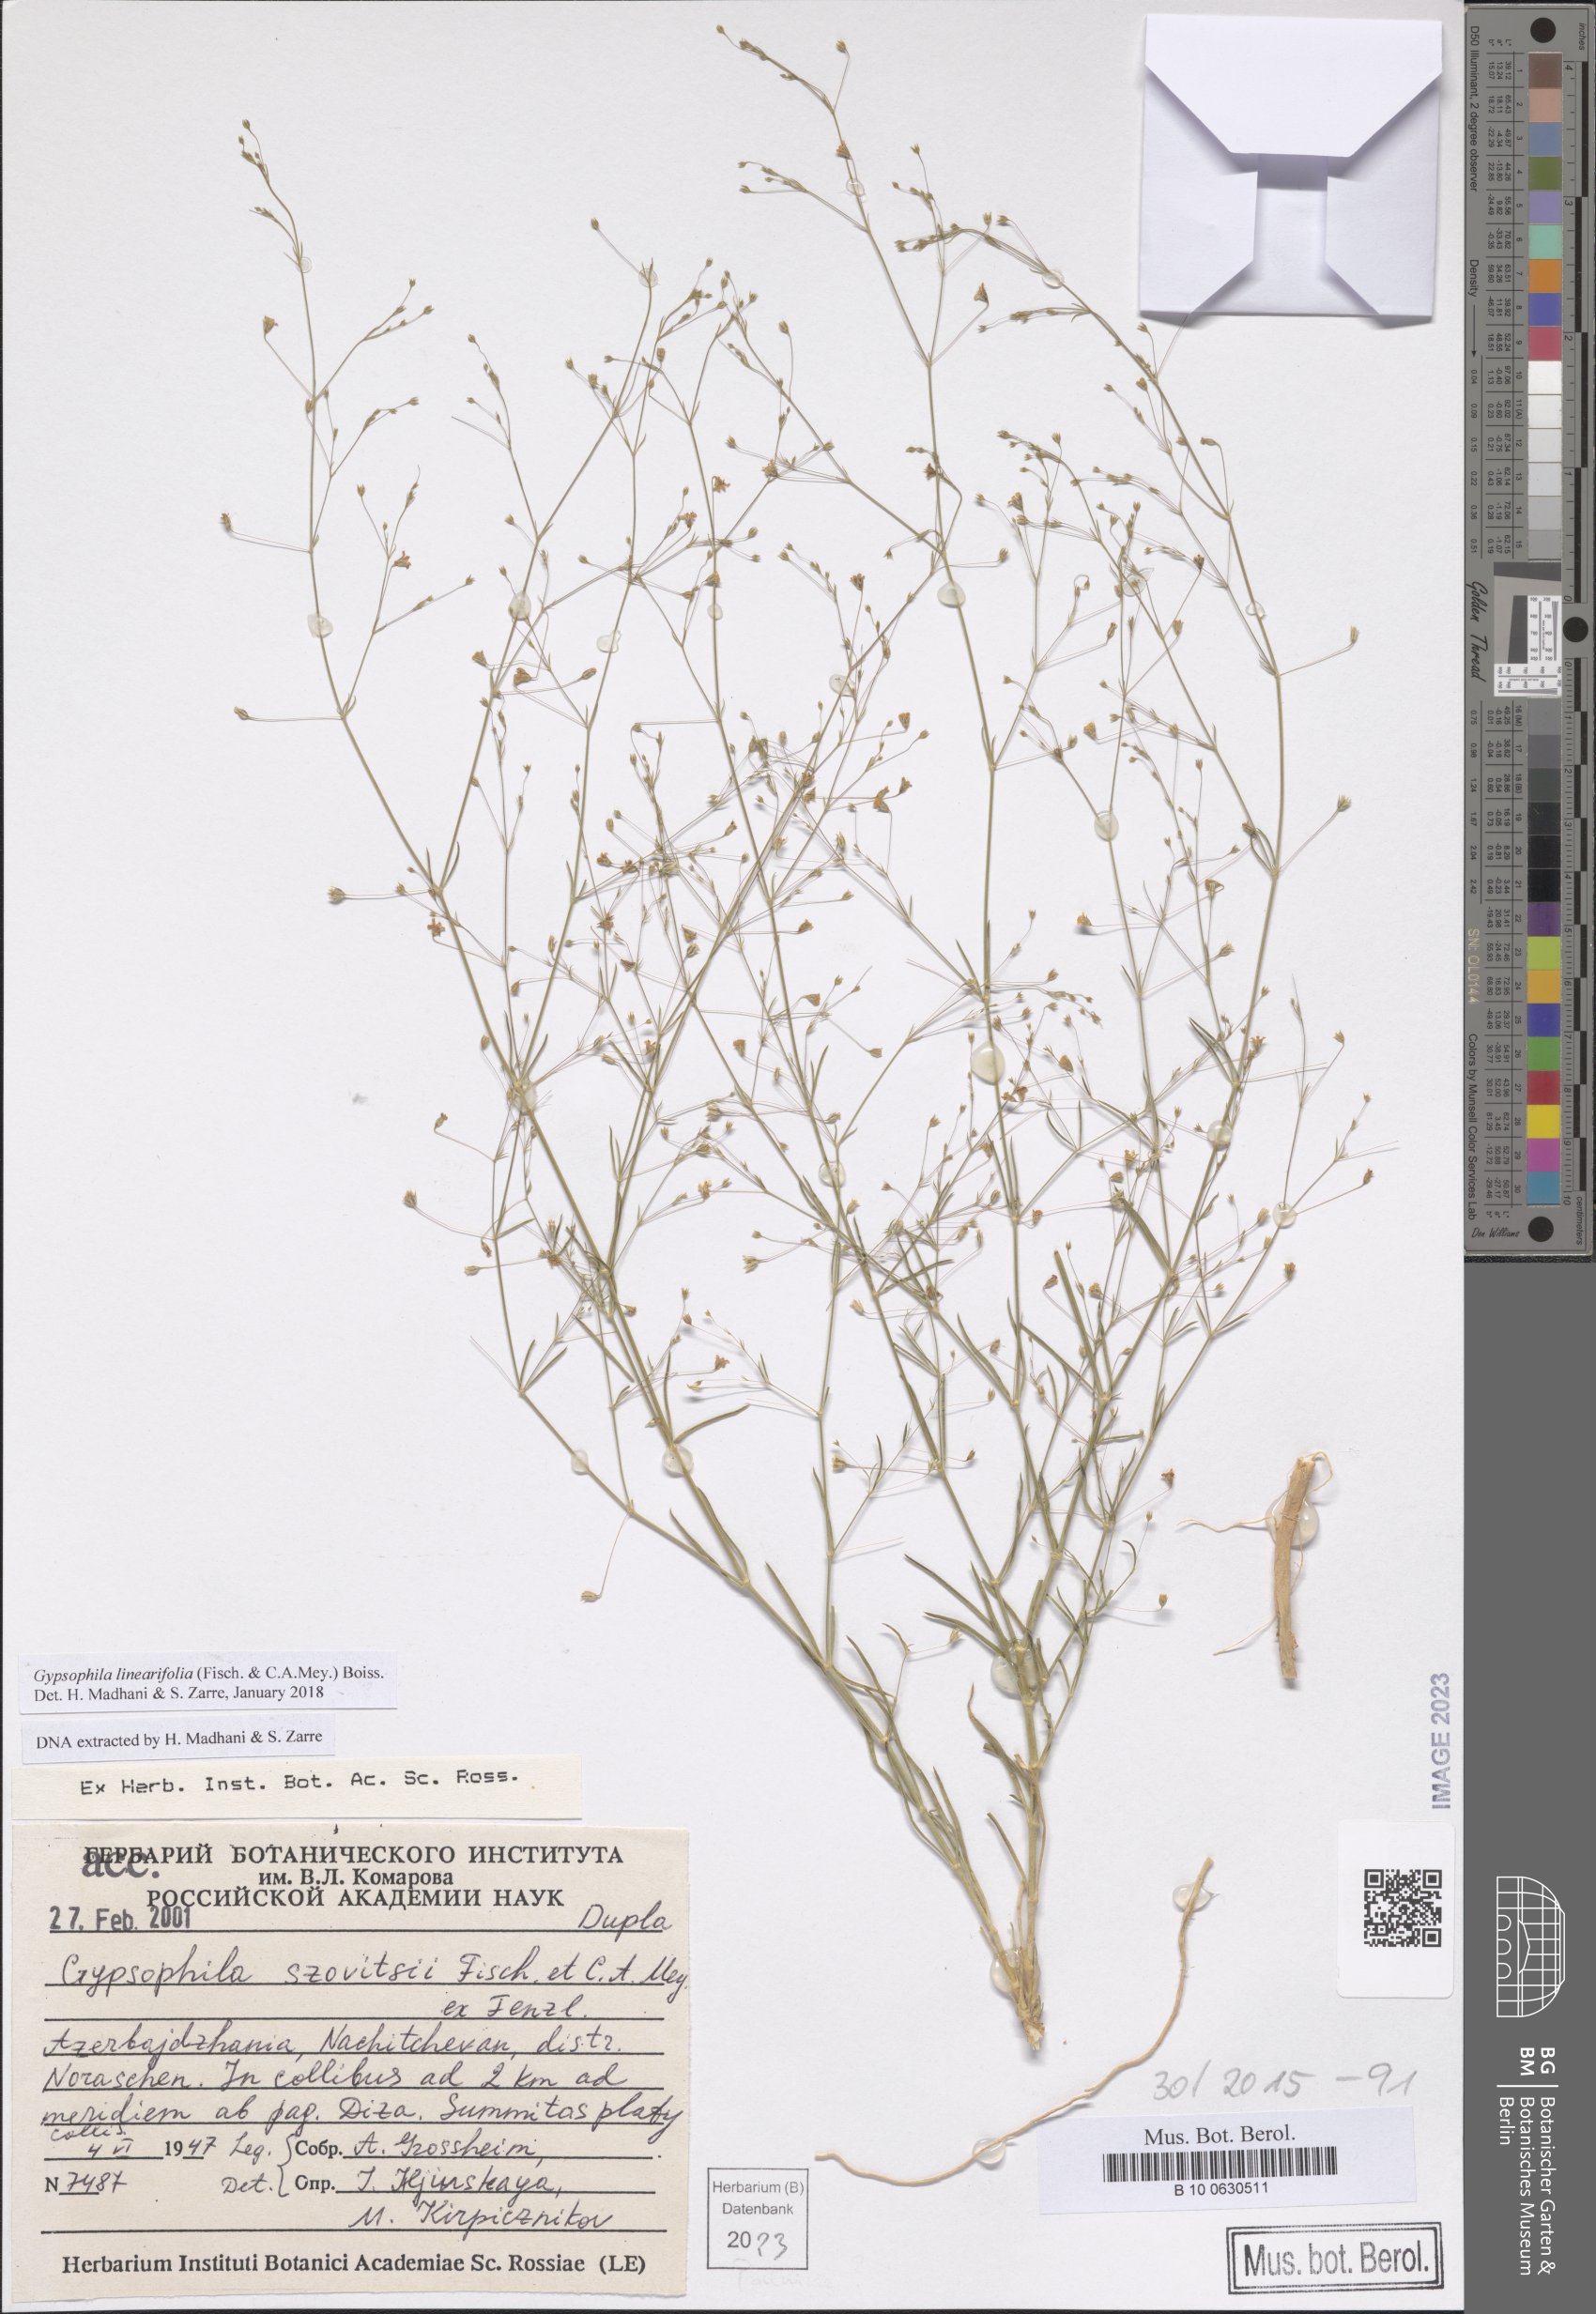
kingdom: Plantae
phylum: Tracheophyta
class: Magnoliopsida
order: Caryophyllales
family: Caryophyllaceae
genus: Gypsophila
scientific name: Gypsophila linearifolia
